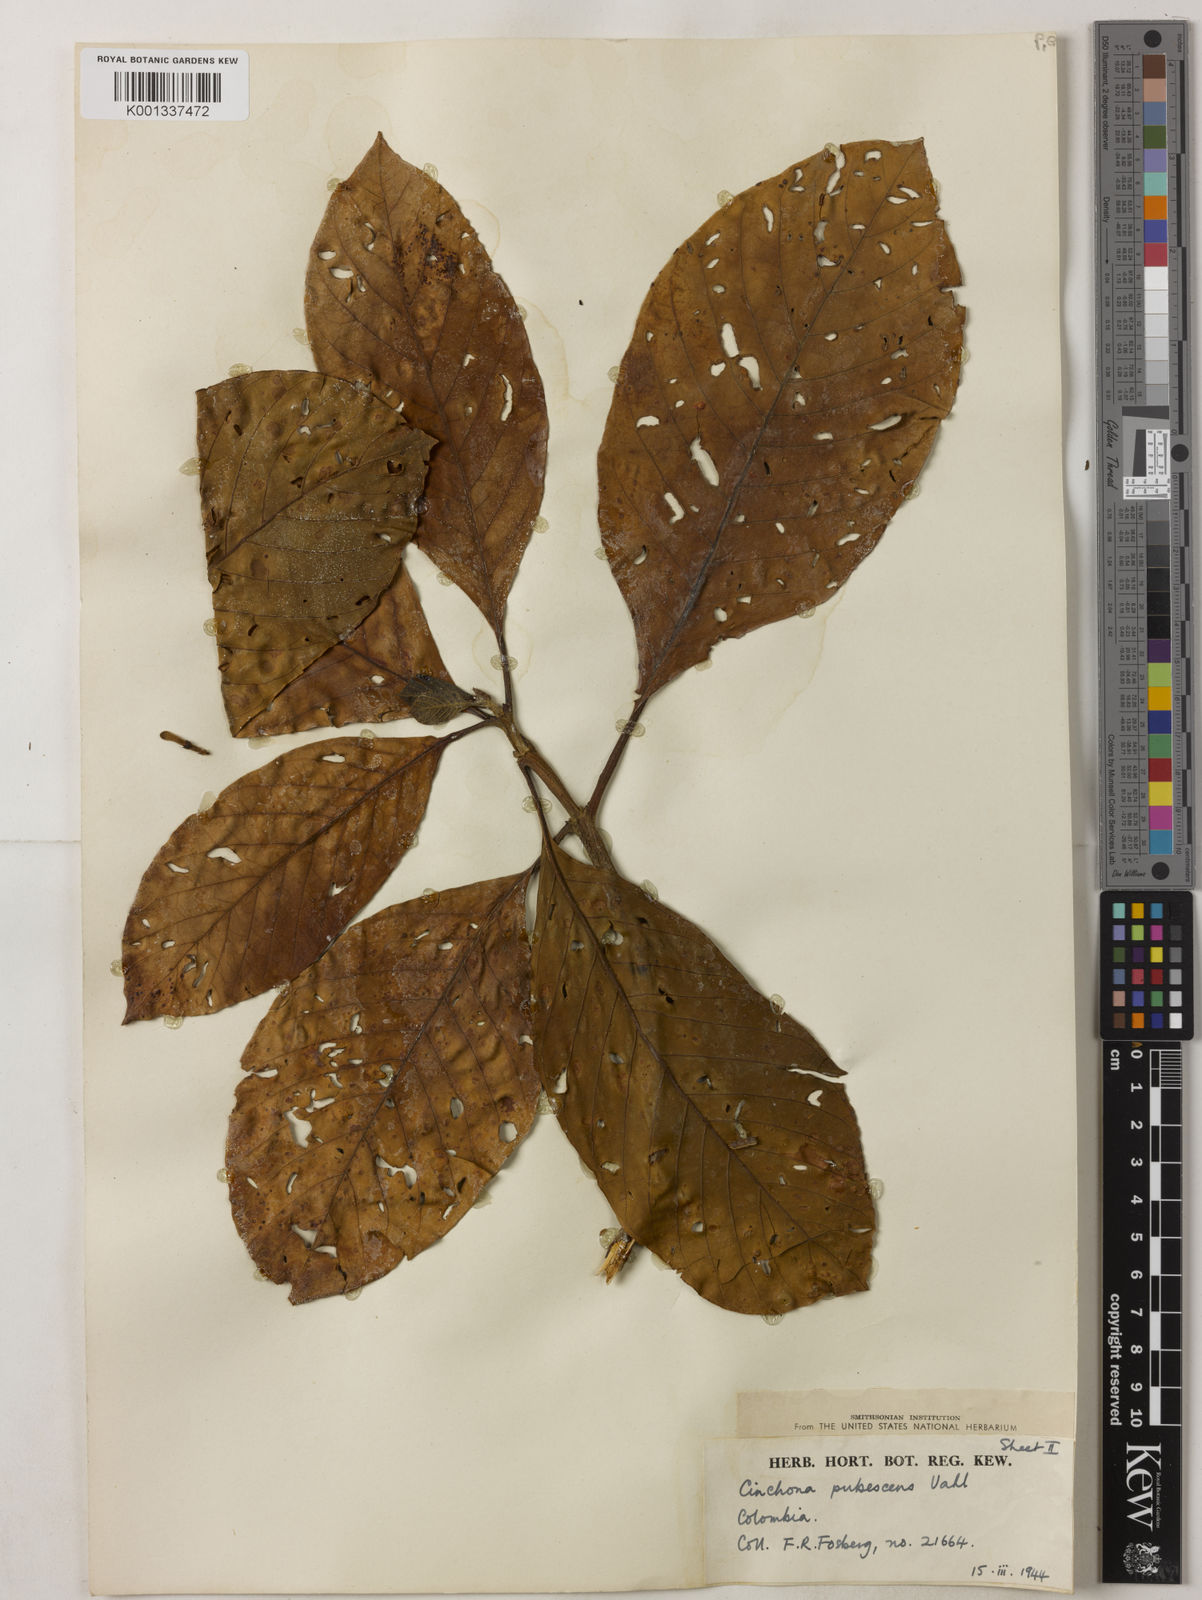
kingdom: Plantae
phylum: Tracheophyta
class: Magnoliopsida
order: Gentianales
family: Rubiaceae
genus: Cinchona
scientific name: Cinchona pubescens
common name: Quinine
